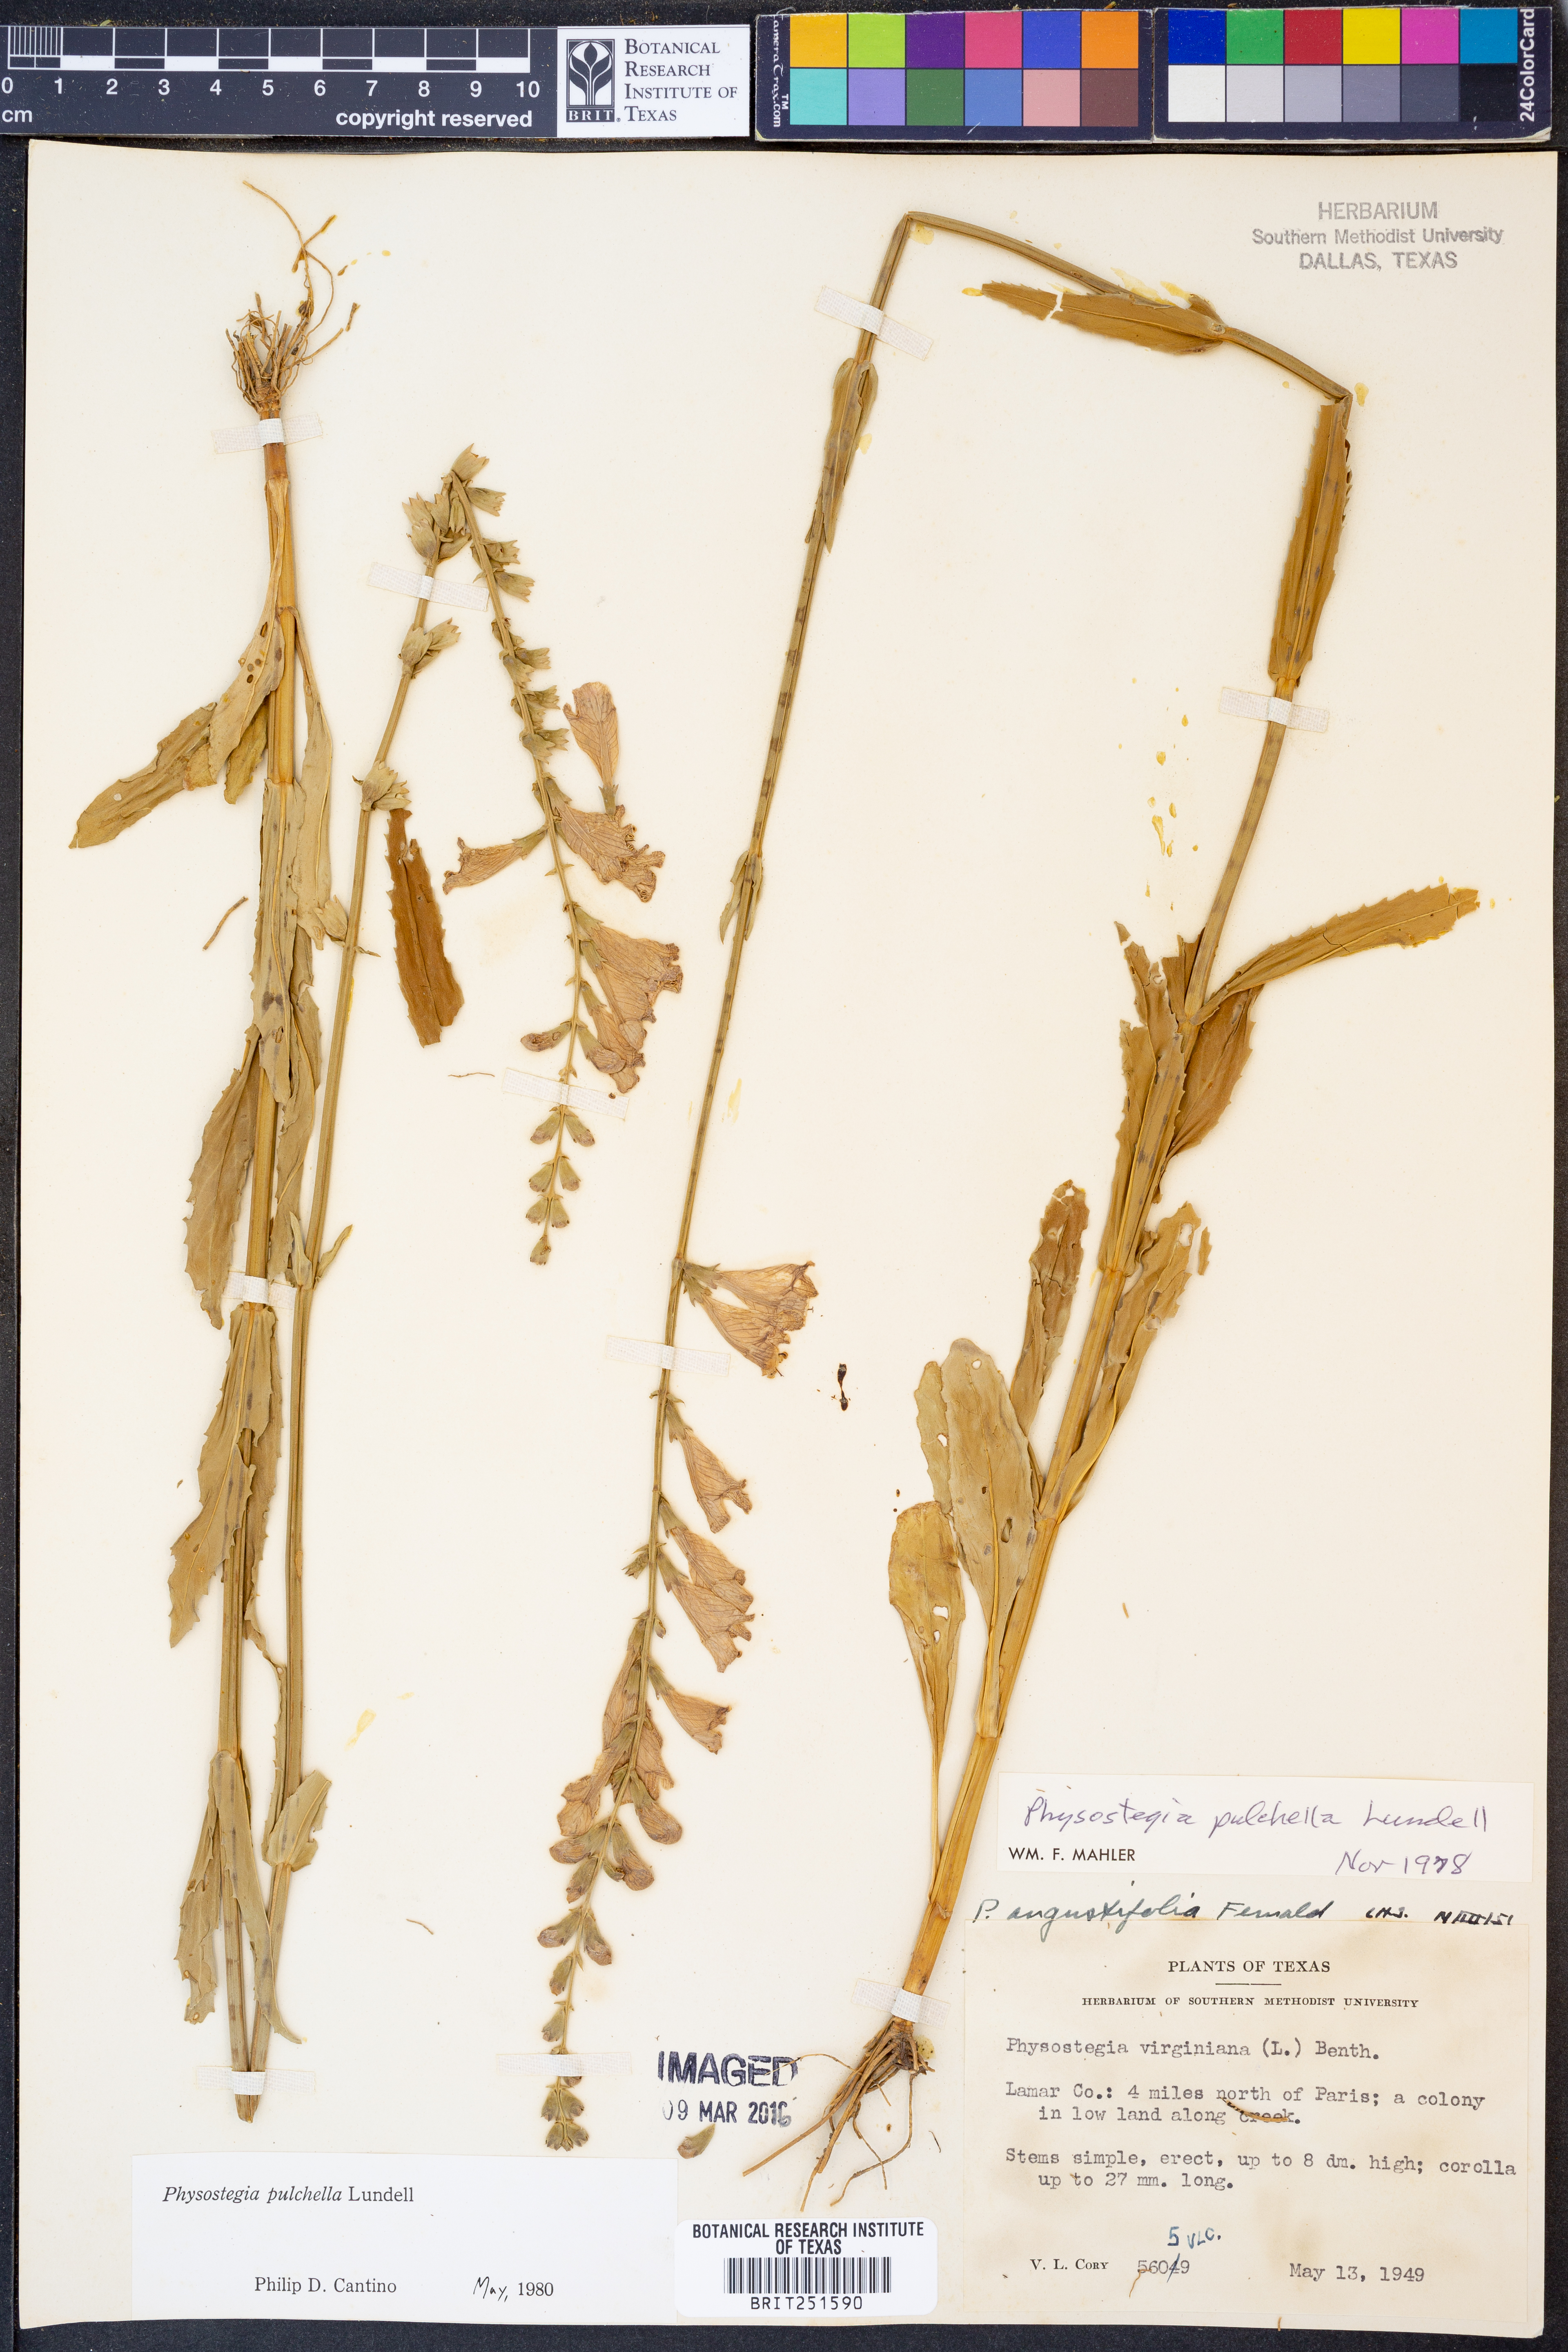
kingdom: Plantae
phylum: Tracheophyta
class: Magnoliopsida
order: Lamiales
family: Lamiaceae
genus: Physostegia
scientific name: Physostegia pulchella
